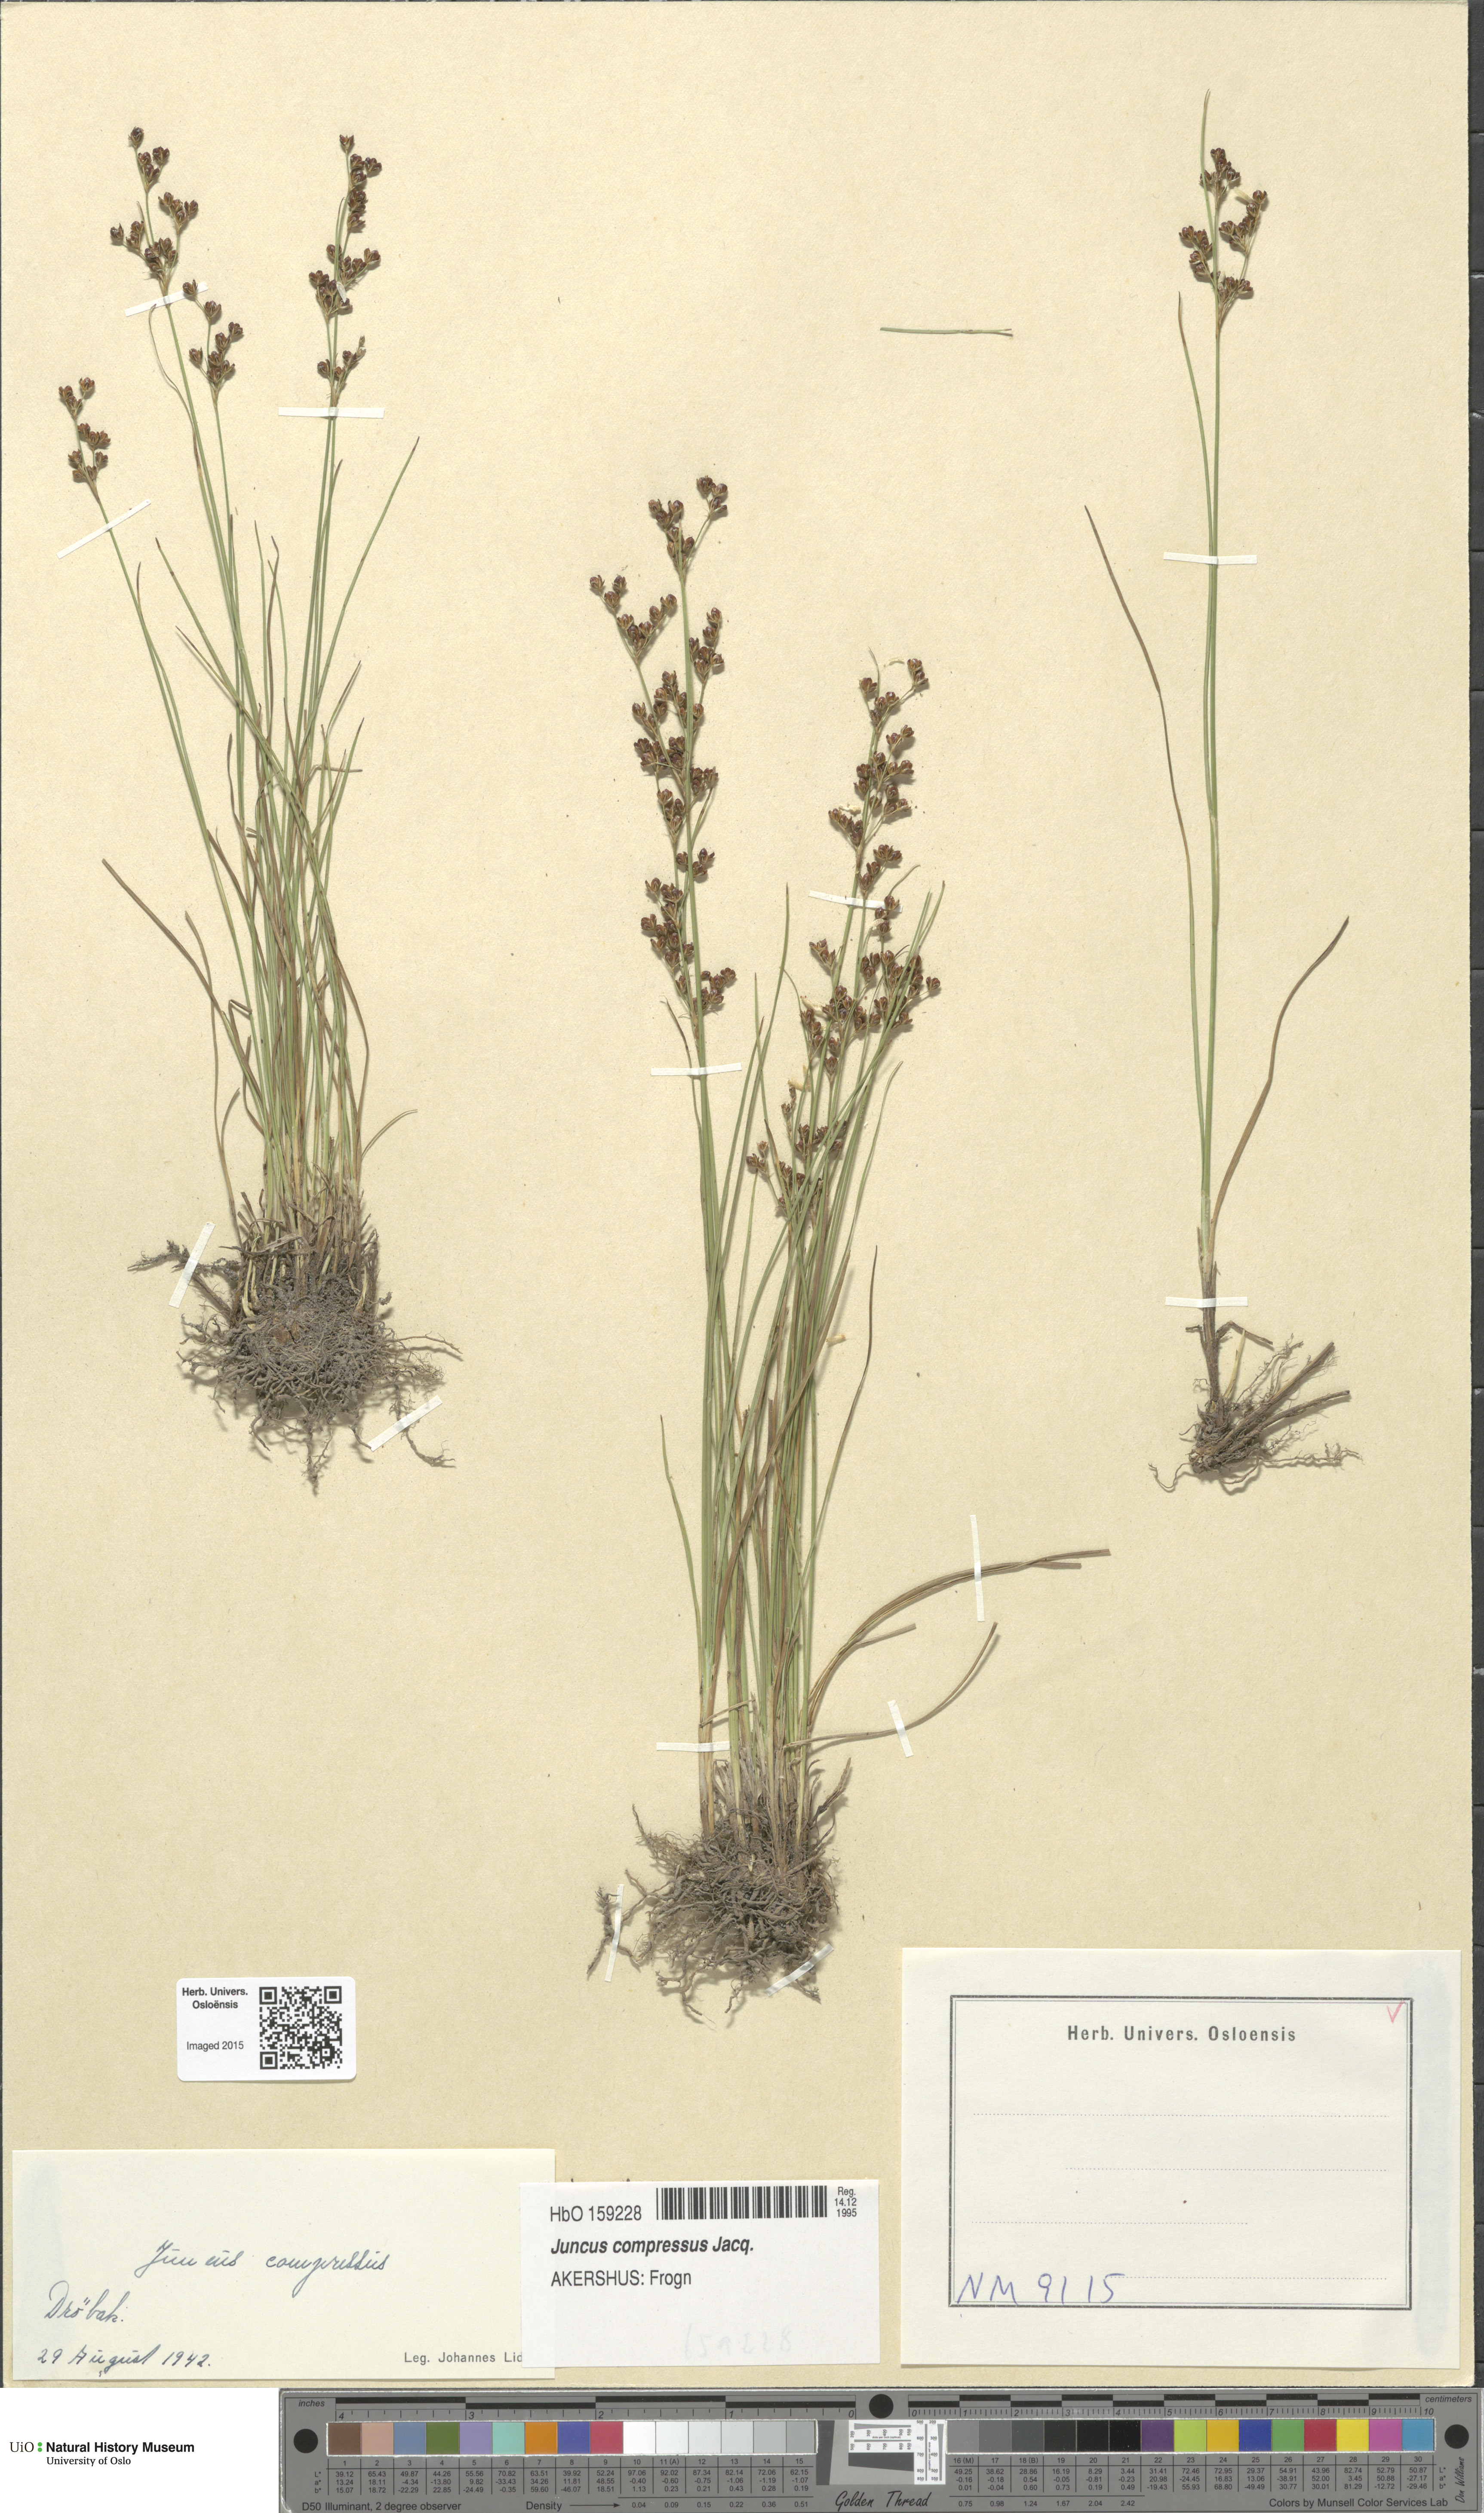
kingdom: Plantae
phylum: Tracheophyta
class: Liliopsida
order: Poales
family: Juncaceae
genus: Juncus
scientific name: Juncus compressus
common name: Round-fruited rush
